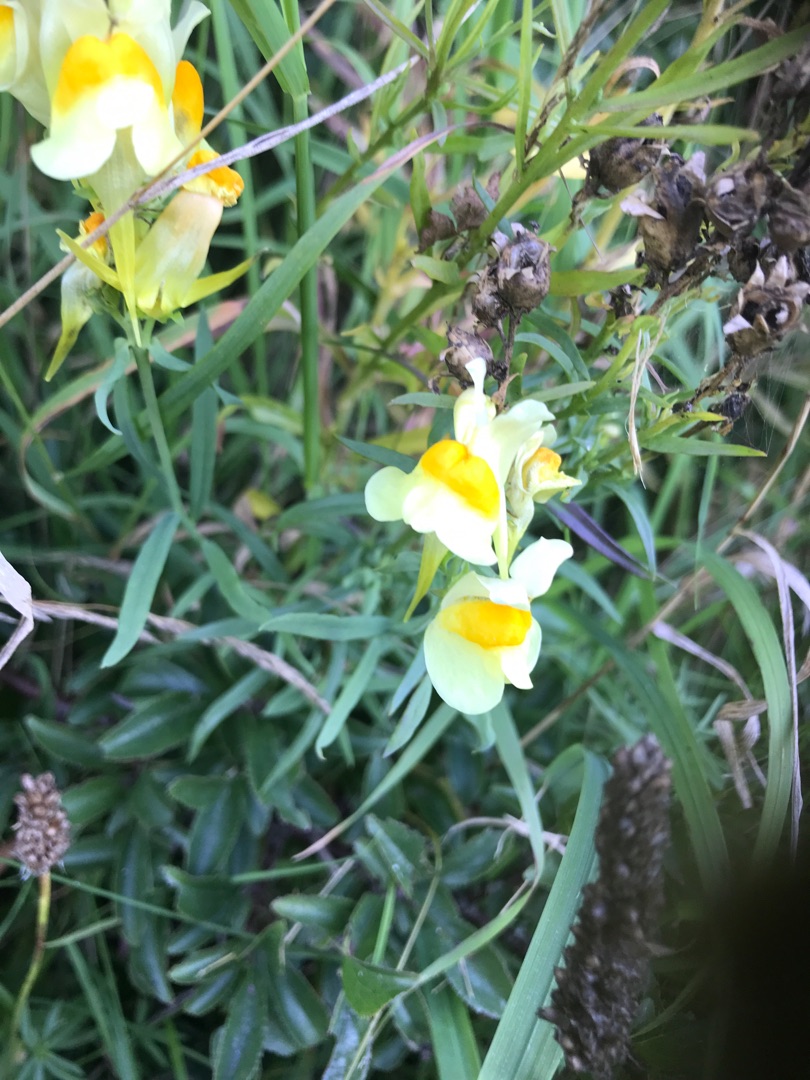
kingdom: Plantae
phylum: Tracheophyta
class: Magnoliopsida
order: Lamiales
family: Plantaginaceae
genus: Linaria
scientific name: Linaria vulgaris
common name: Almindelig torskemund
